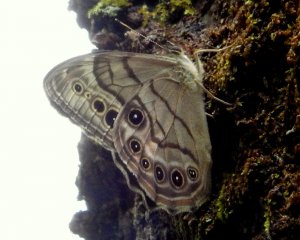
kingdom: Animalia
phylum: Arthropoda
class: Insecta
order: Lepidoptera
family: Nymphalidae
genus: Lethe
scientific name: Lethe anthedon
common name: Northern Pearly-Eye
